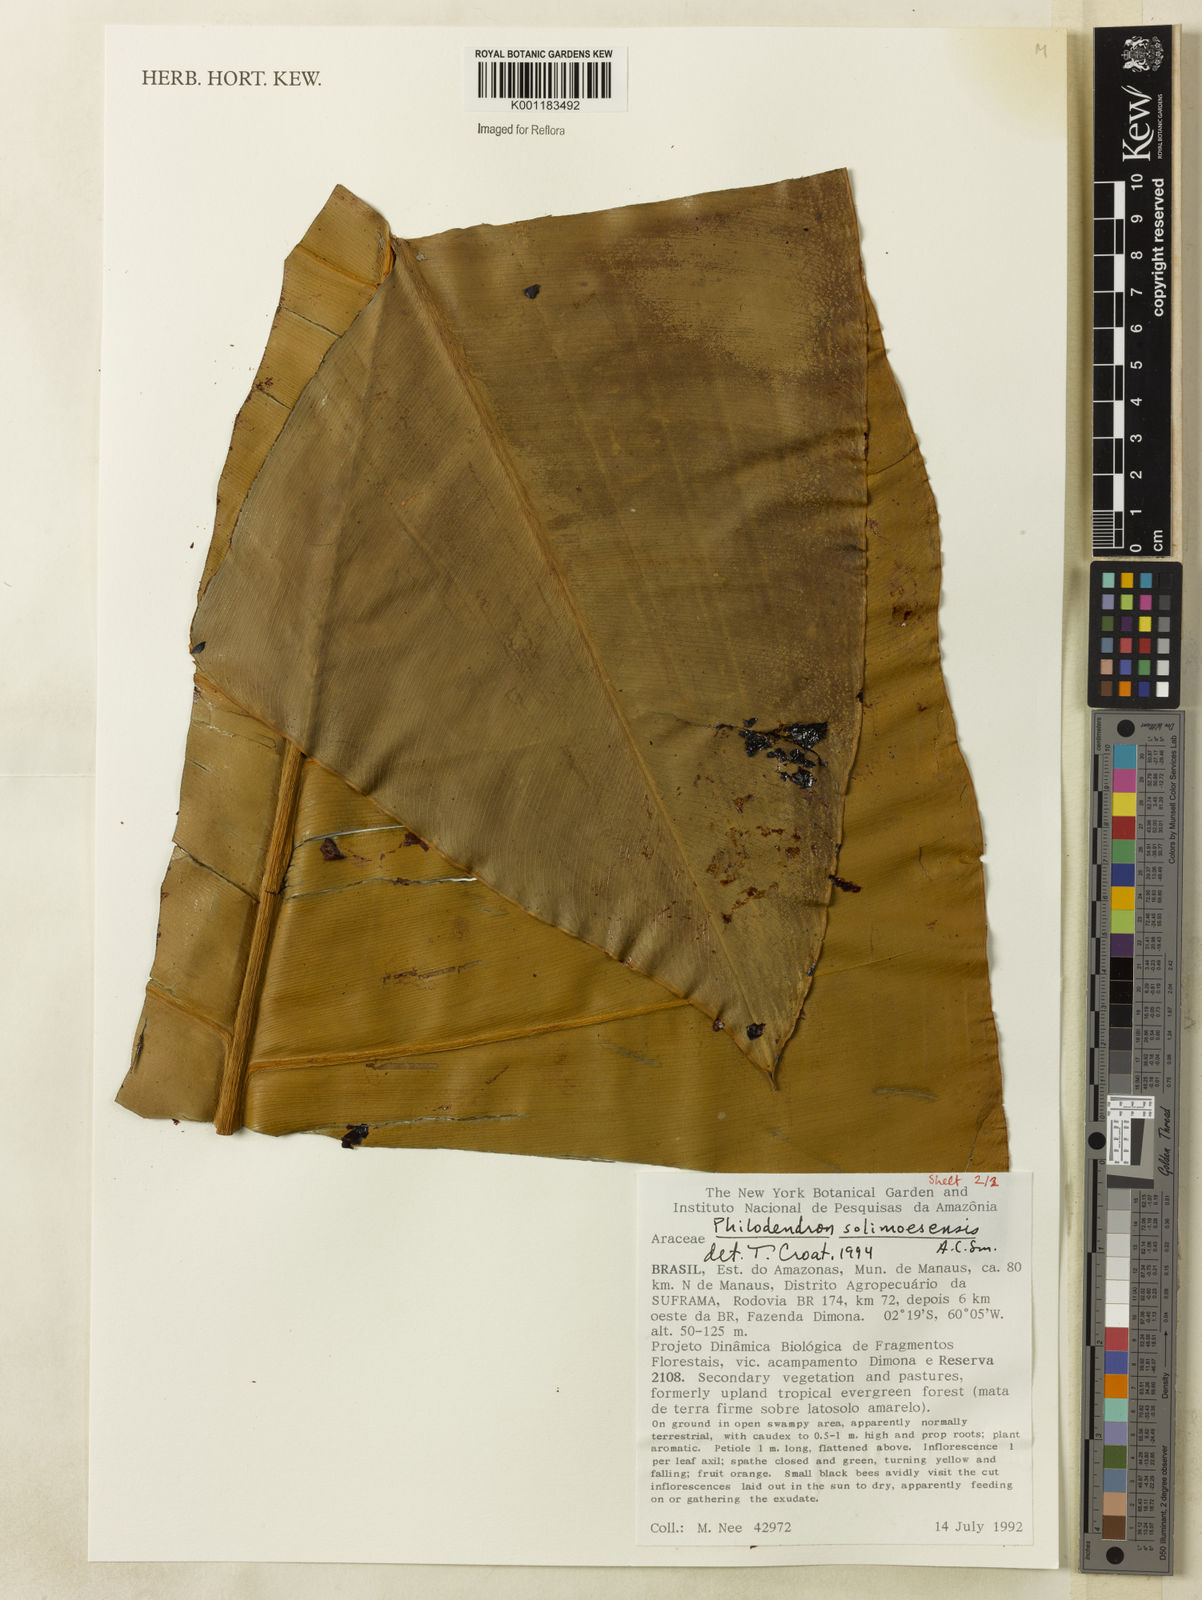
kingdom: Plantae
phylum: Tracheophyta
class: Liliopsida
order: Alismatales
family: Araceae
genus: Thaumatophyllum
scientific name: Thaumatophyllum solimoesense
